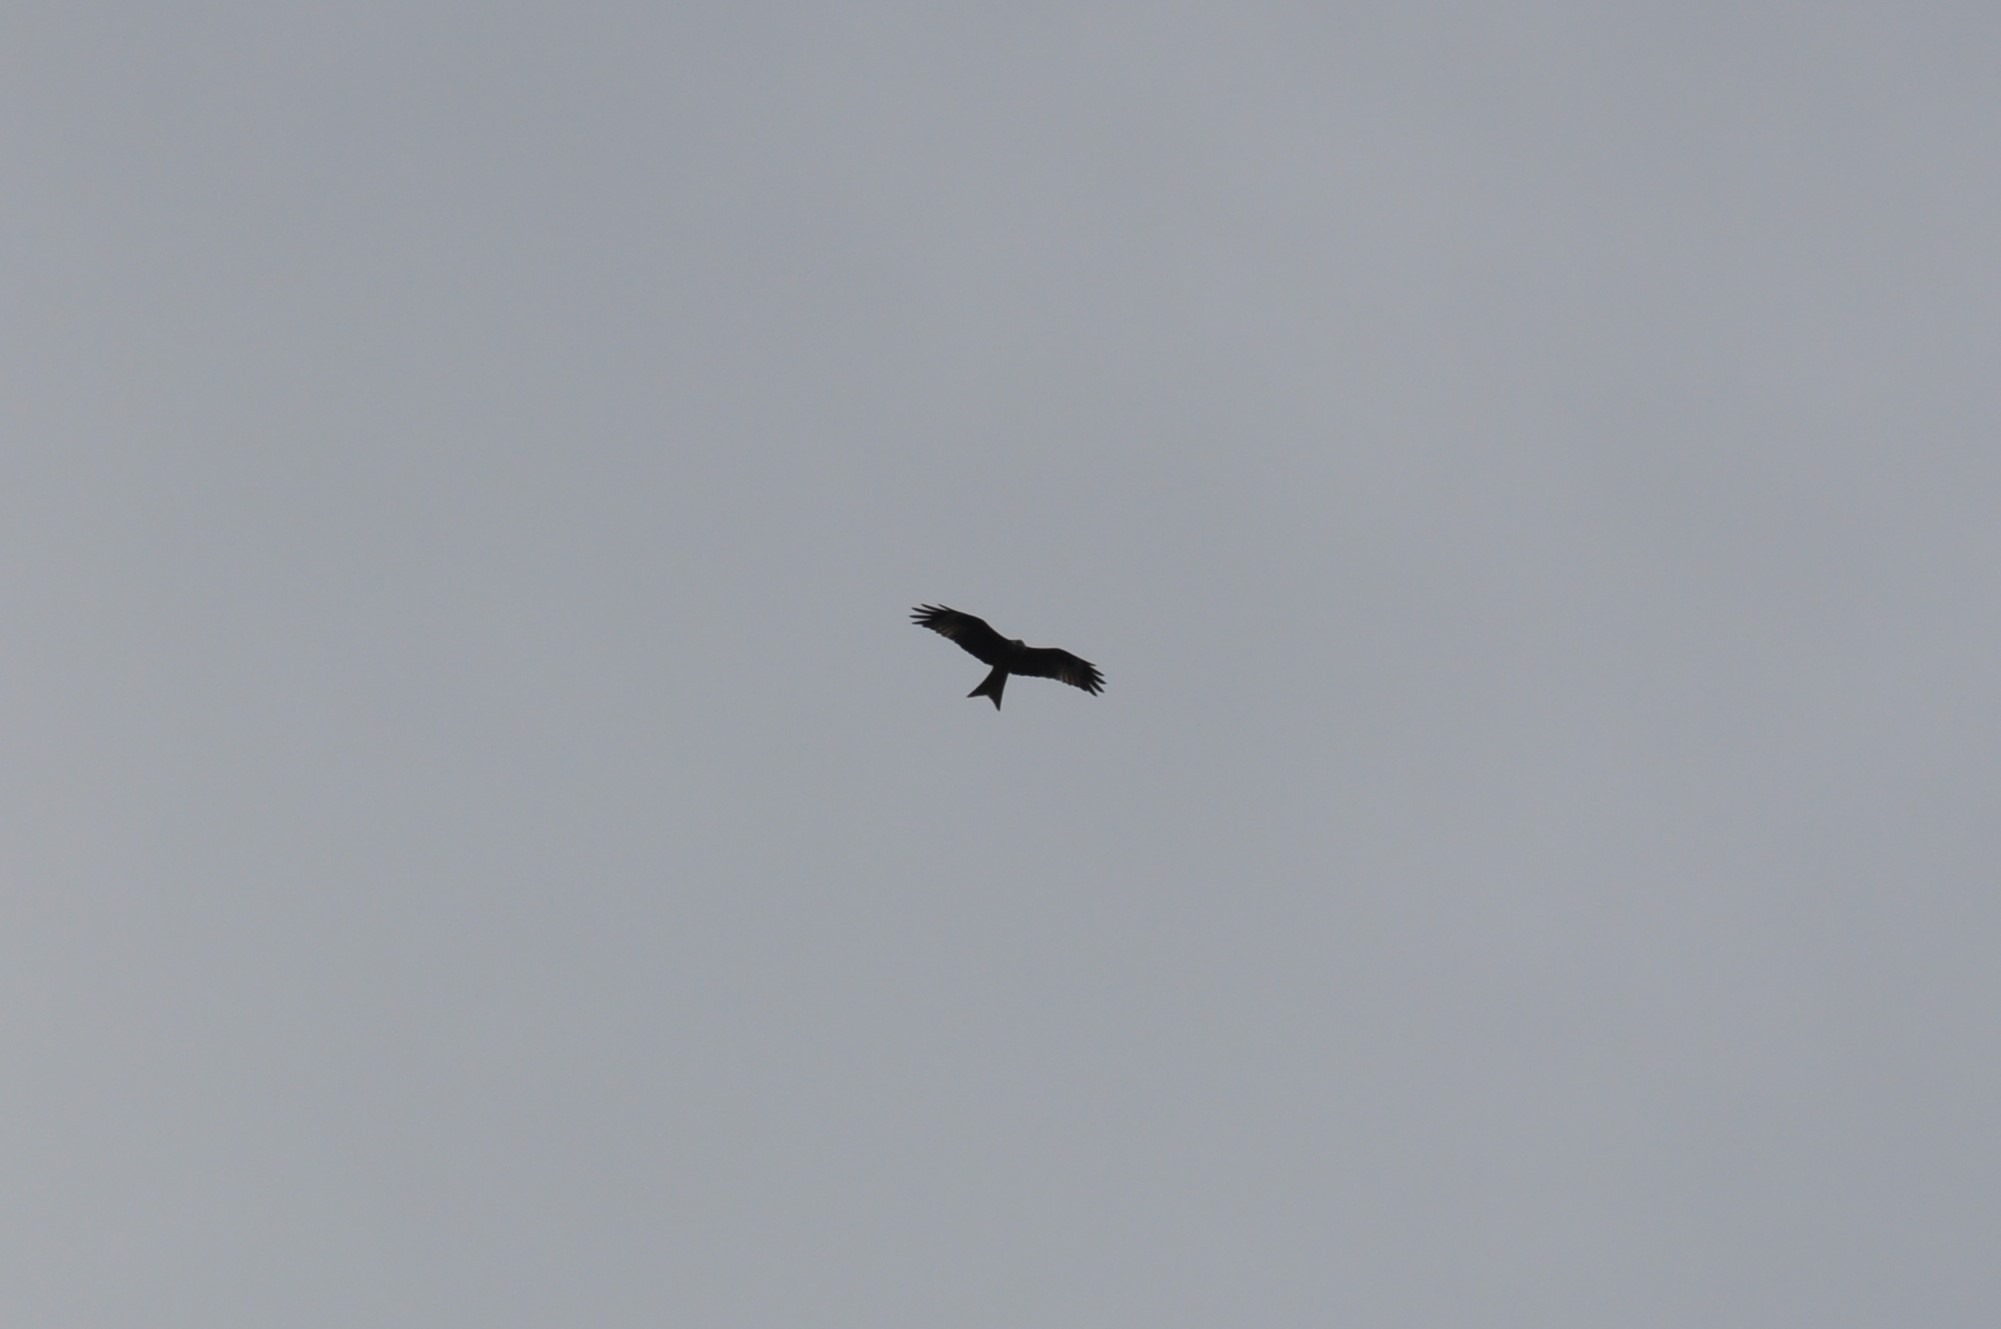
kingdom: Animalia
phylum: Chordata
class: Aves
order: Accipitriformes
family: Accipitridae
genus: Milvus
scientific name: Milvus milvus
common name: Rød glente
